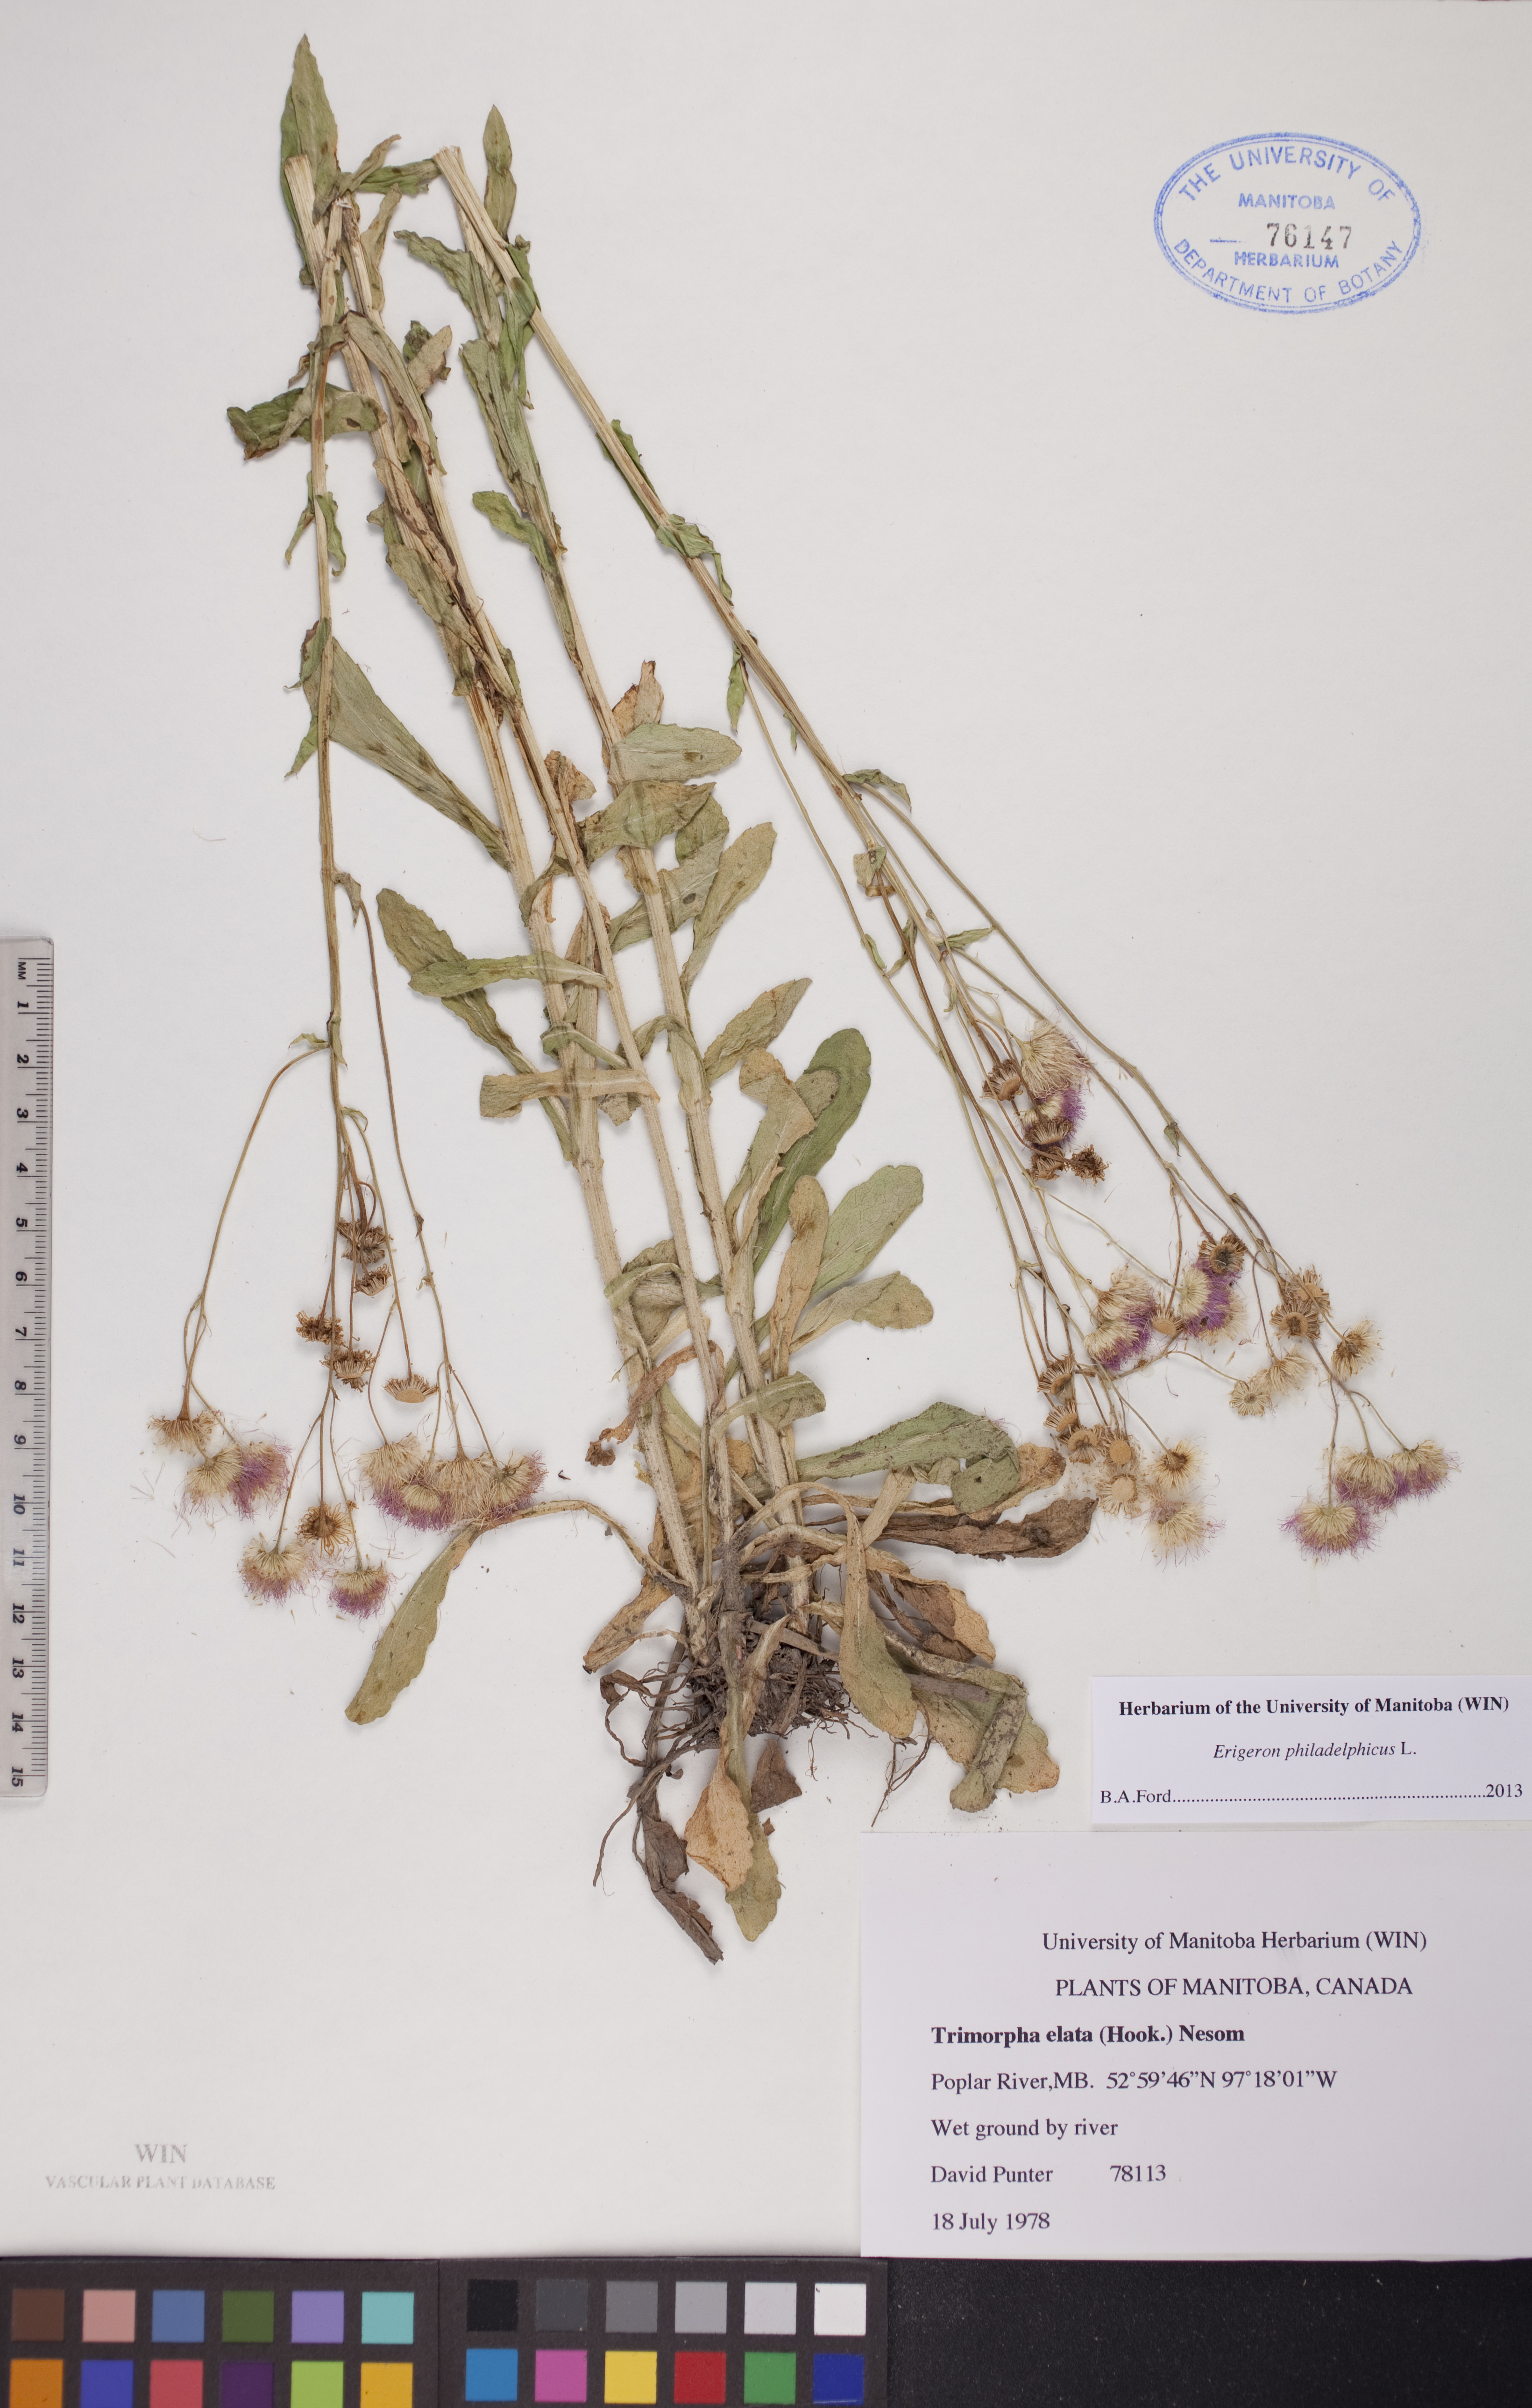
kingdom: Plantae
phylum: Tracheophyta
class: Magnoliopsida
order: Asterales
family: Asteraceae
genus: Erigeron
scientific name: Erigeron philadelphicus
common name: Robin's-plantain
